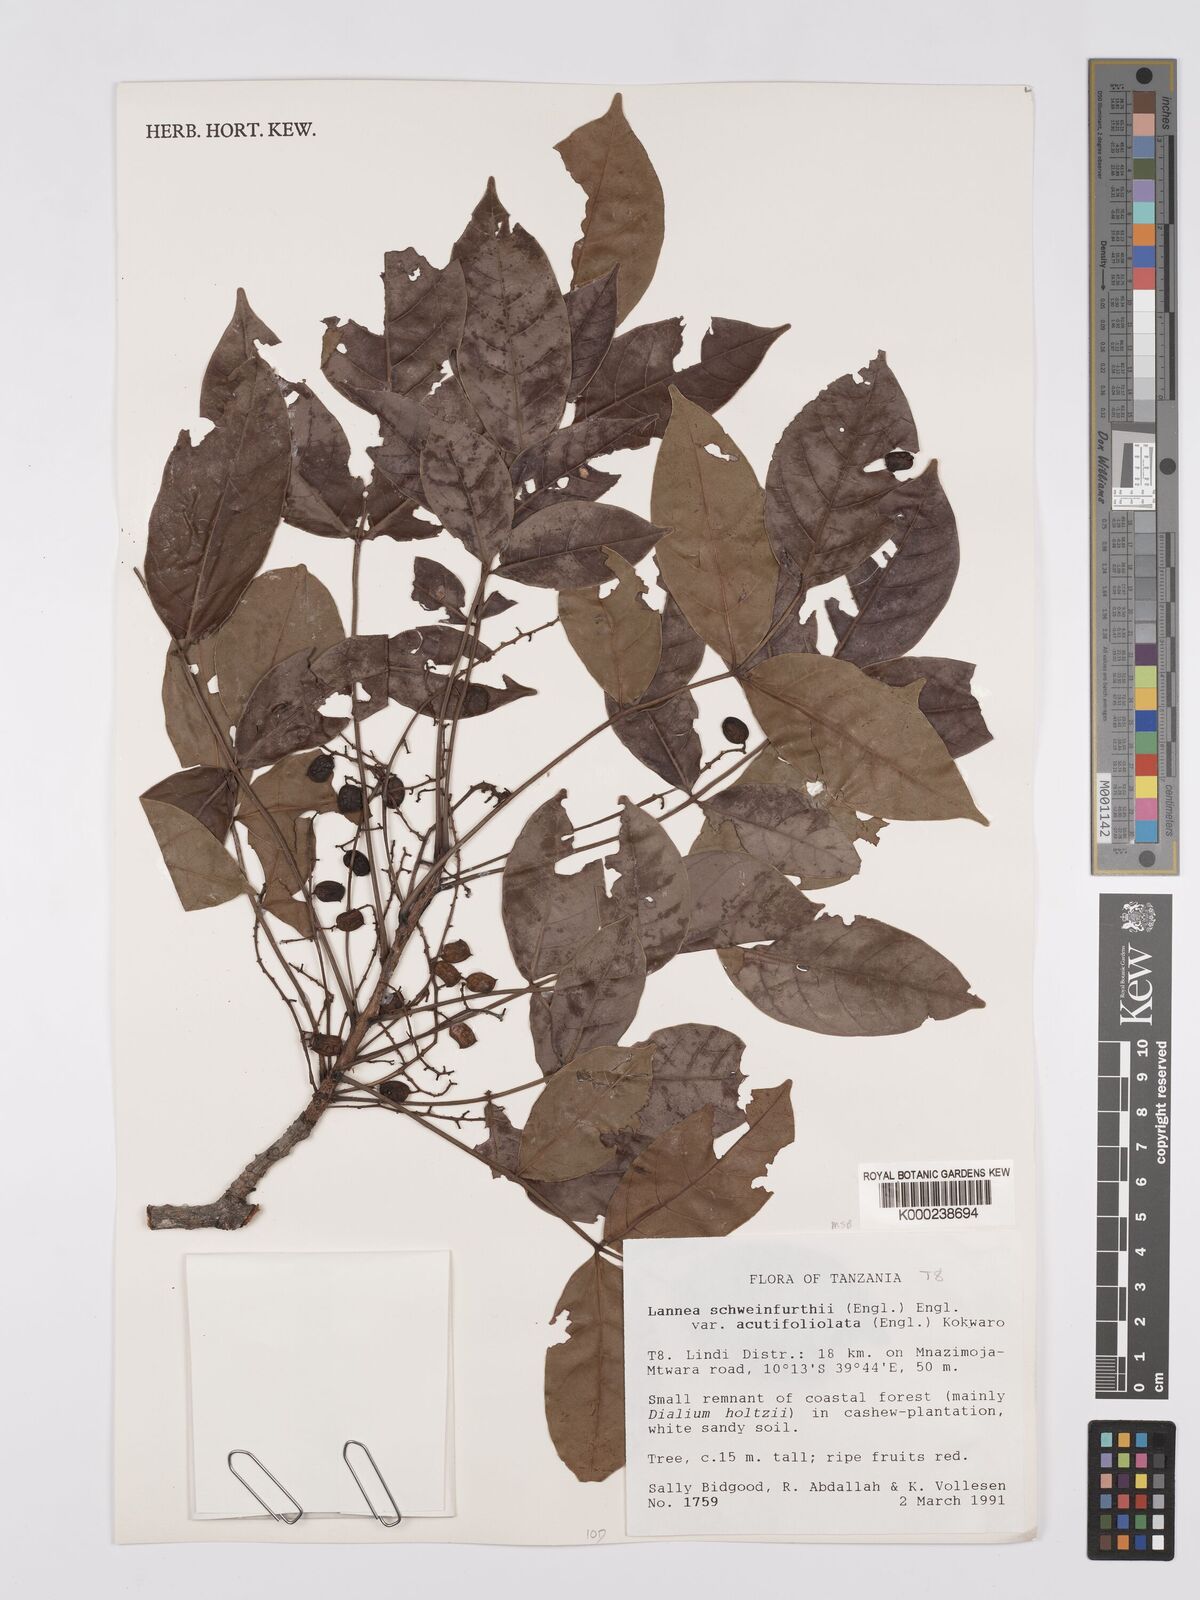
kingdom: Plantae
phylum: Tracheophyta
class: Magnoliopsida
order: Sapindales
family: Anacardiaceae
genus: Lannea
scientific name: Lannea schweinfurthii
